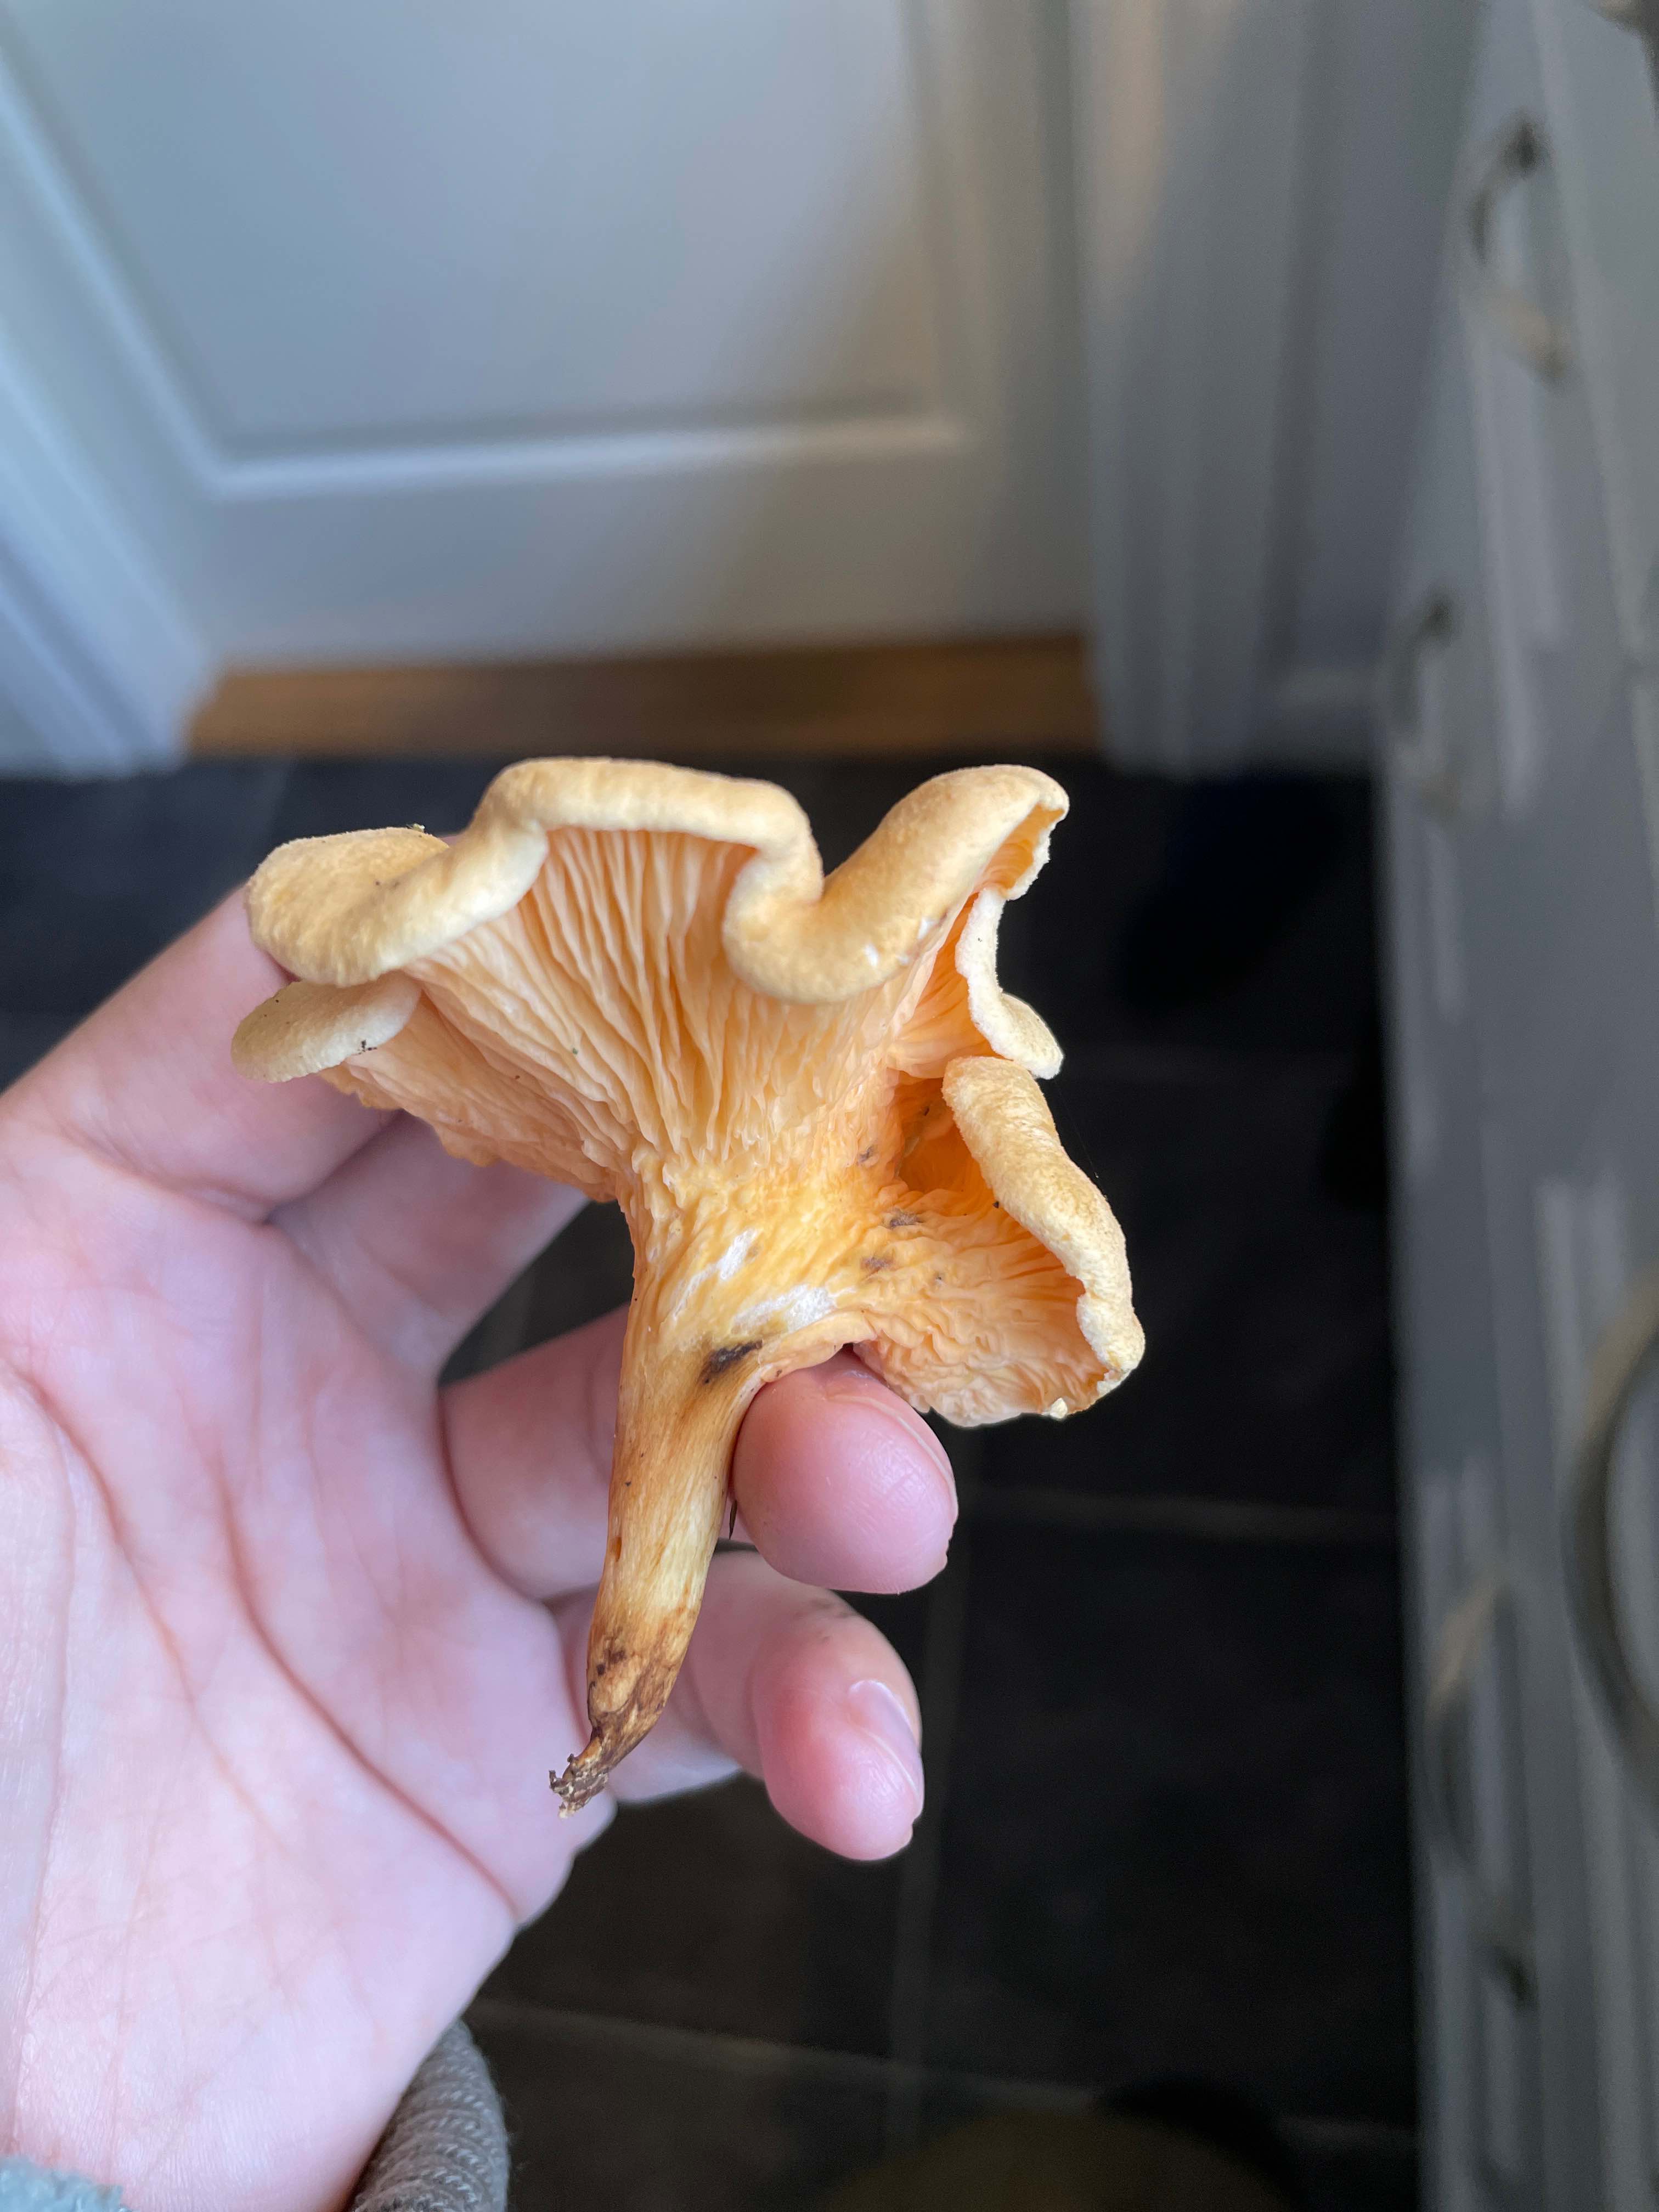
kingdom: Fungi
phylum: Basidiomycota
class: Agaricomycetes
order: Boletales
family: Hygrophoropsidaceae
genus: Hygrophoropsis
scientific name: Hygrophoropsis aurantiaca
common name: almindelig orangekantarel
